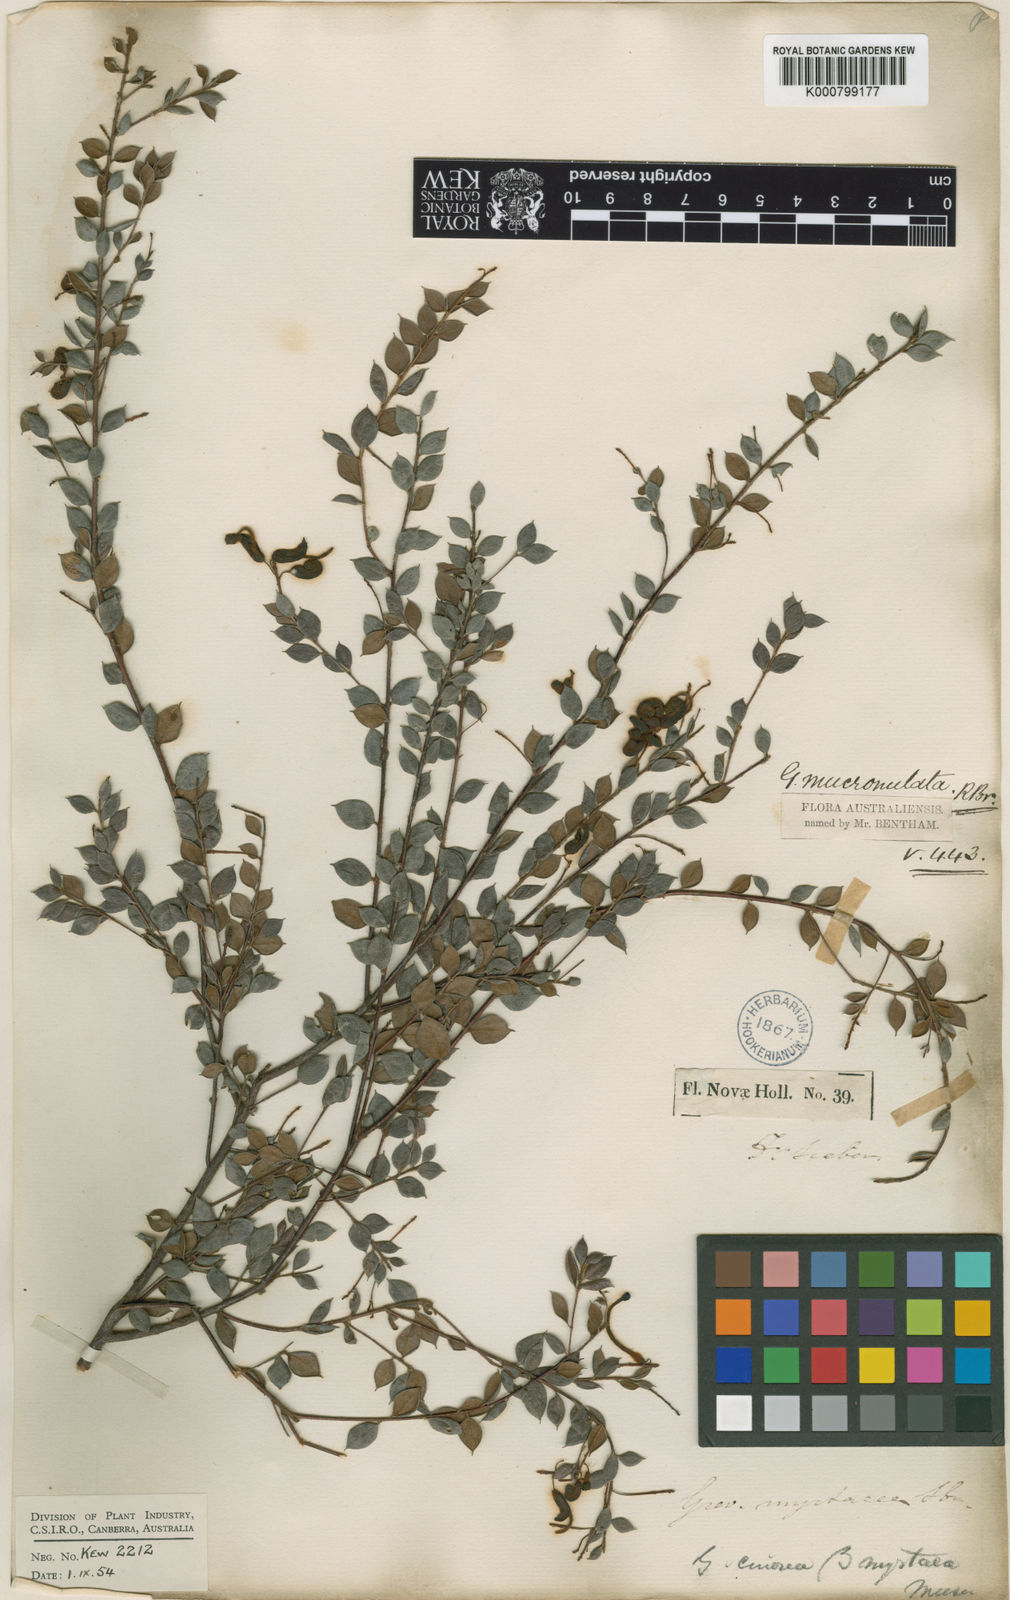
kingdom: Plantae
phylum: Tracheophyta
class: Magnoliopsida
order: Proteales
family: Proteaceae
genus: Grevillea
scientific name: Grevillea mucronulata
